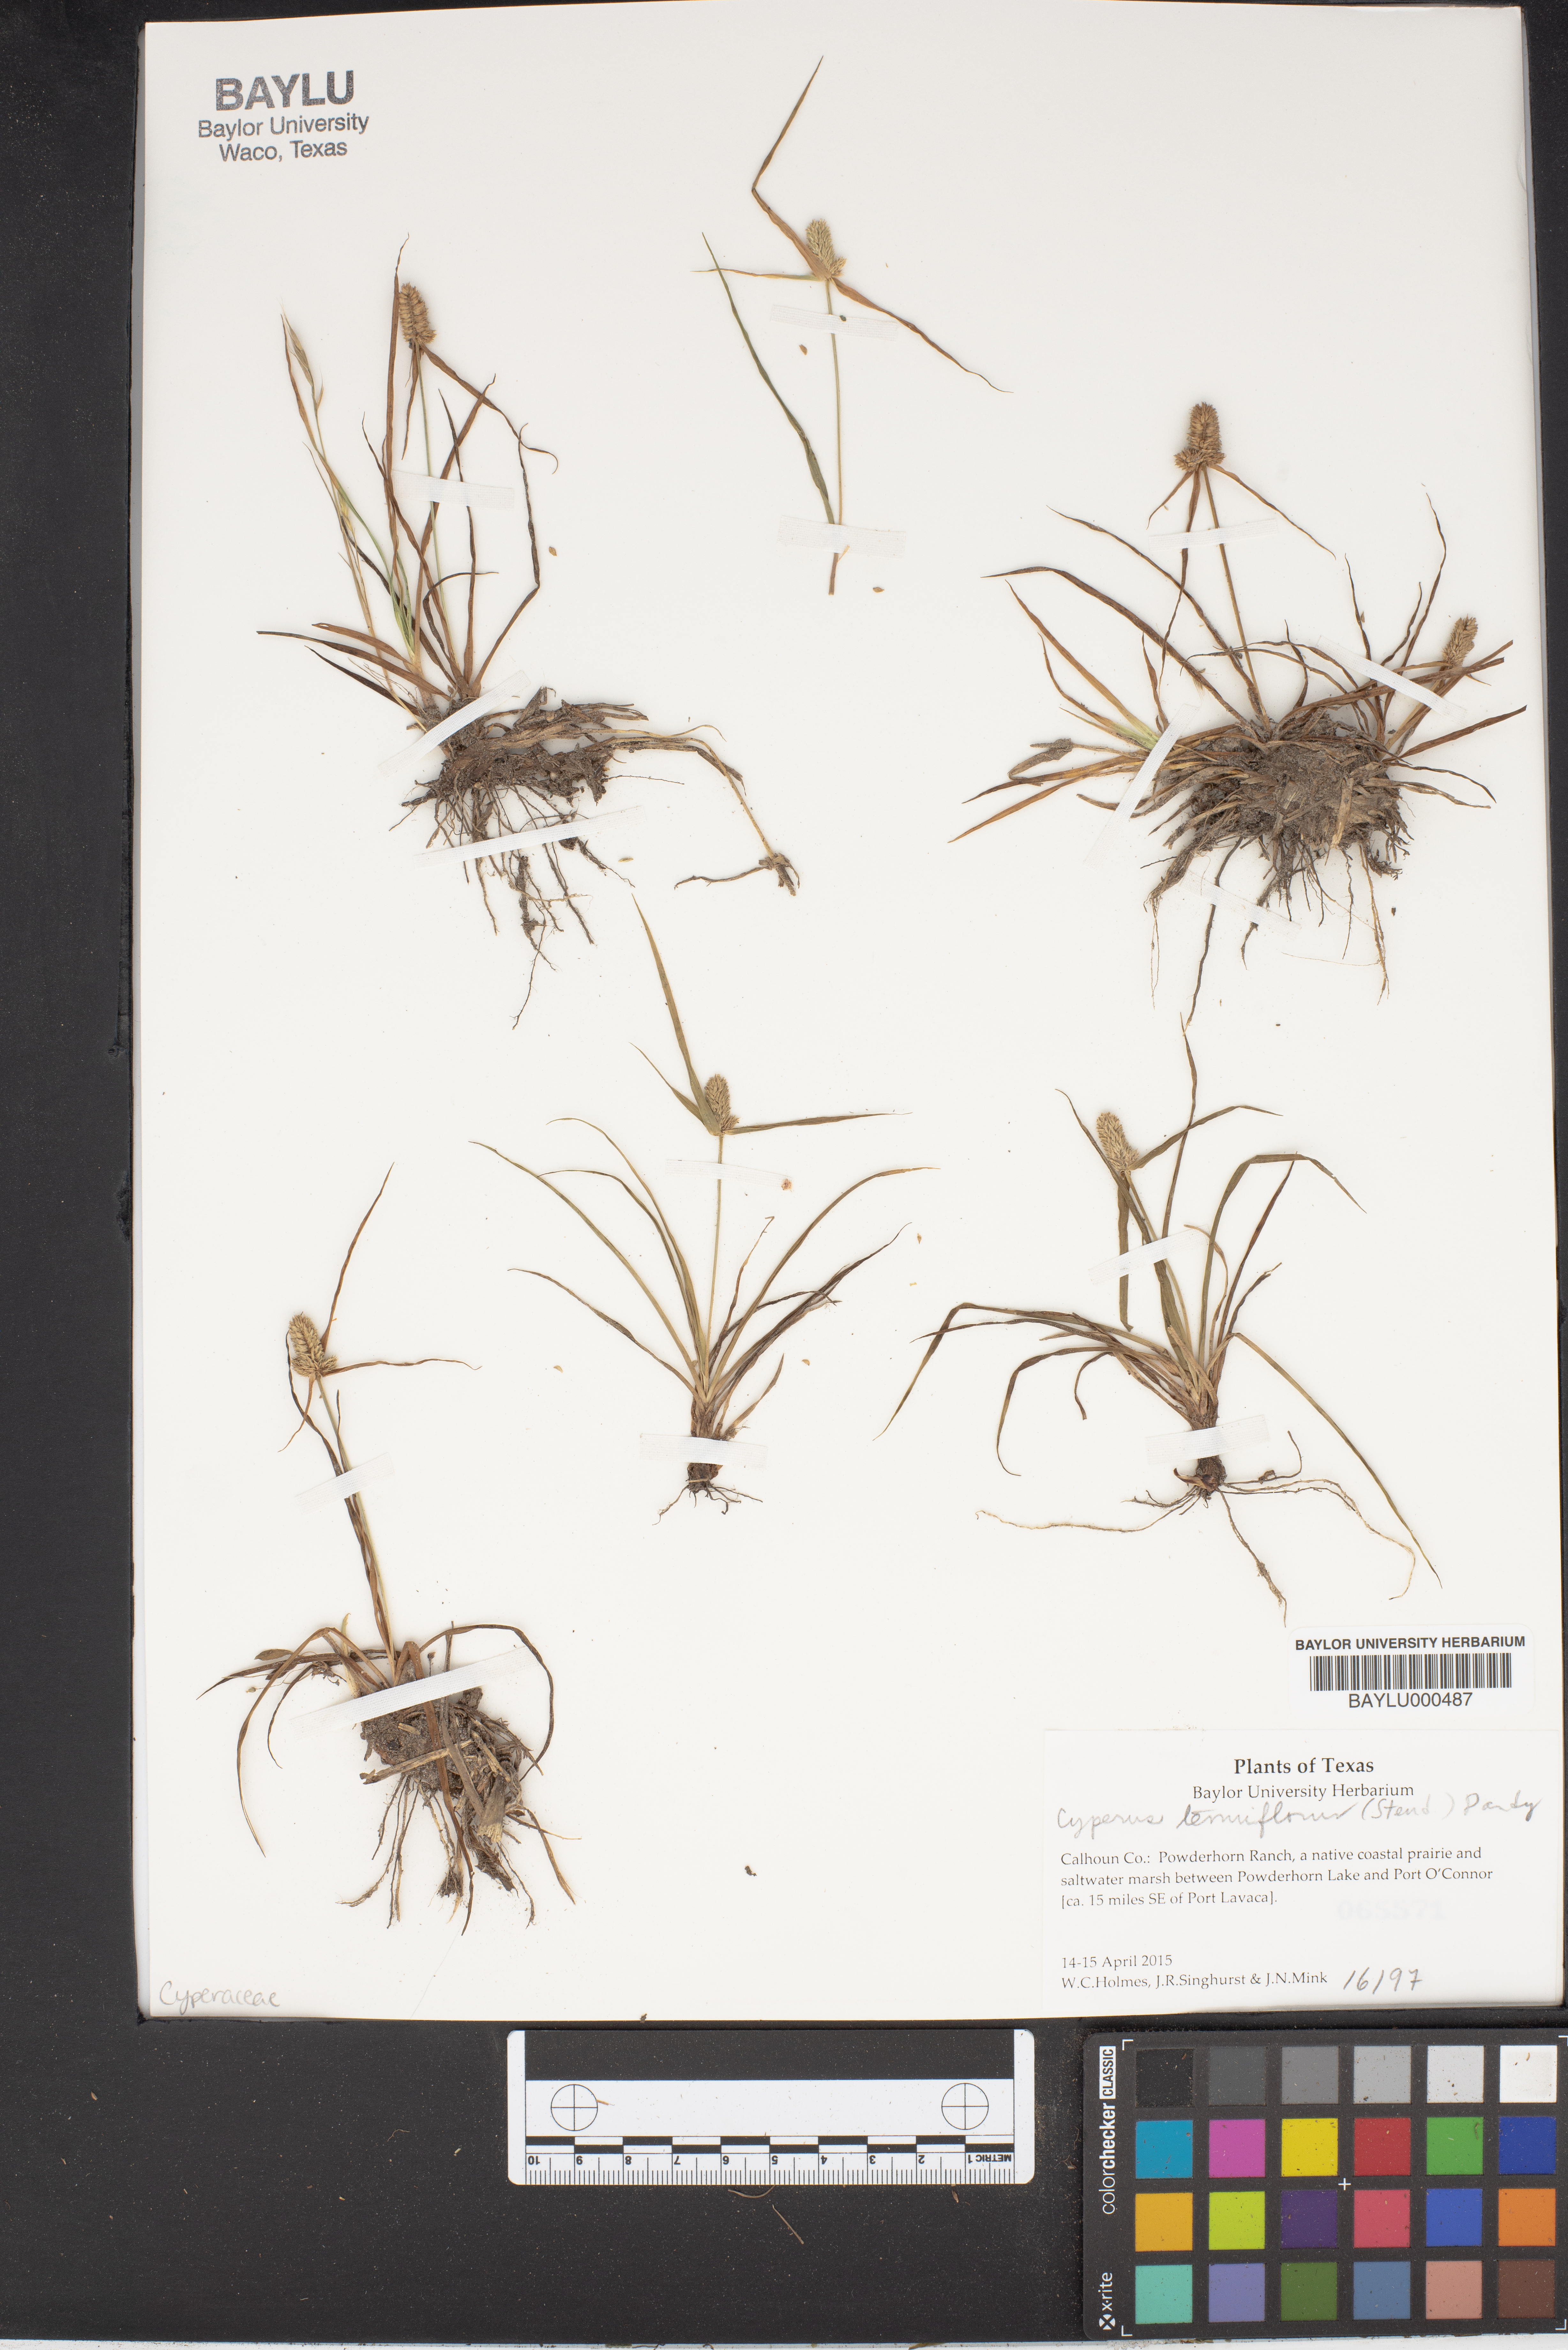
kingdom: Plantae
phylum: Tracheophyta
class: Liliopsida
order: Poales
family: Cyperaceae
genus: Cyperus
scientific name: Cyperus tenuifolius
